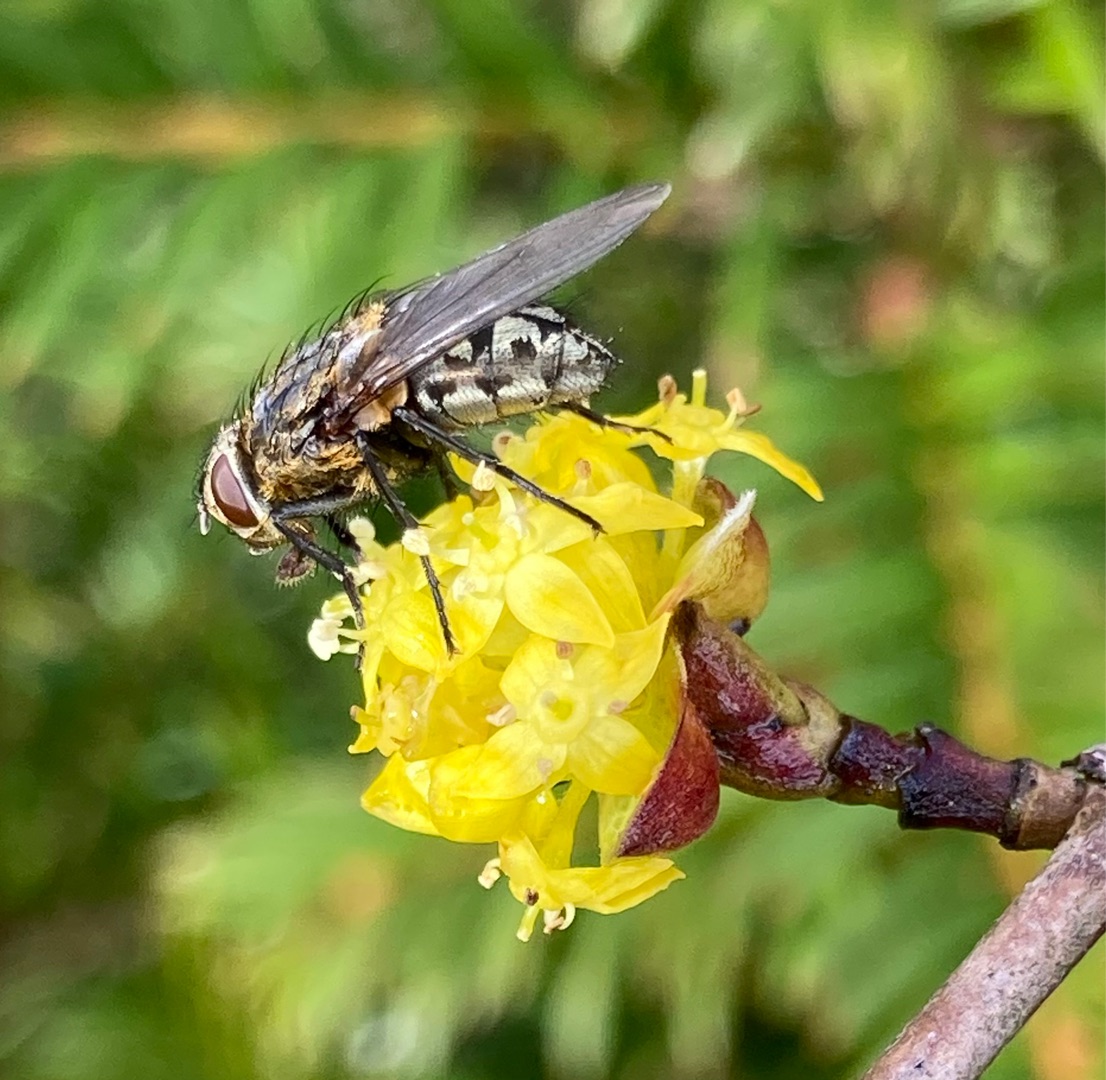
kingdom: Animalia
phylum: Arthropoda
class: Insecta
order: Diptera
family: Polleniidae
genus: Pollenia
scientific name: Pollenia
